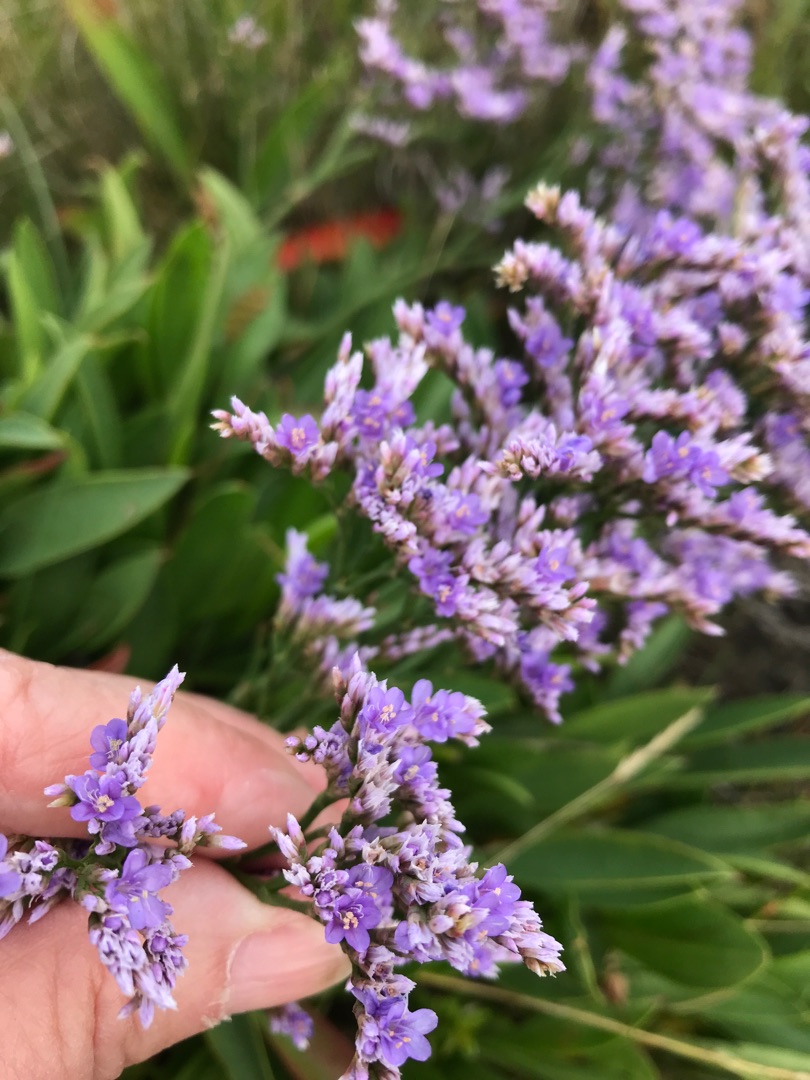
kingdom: Plantae
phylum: Tracheophyta
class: Magnoliopsida
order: Caryophyllales
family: Plumbaginaceae
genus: Limonium
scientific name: Limonium vulgare
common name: Tætblomstret hindebæger
